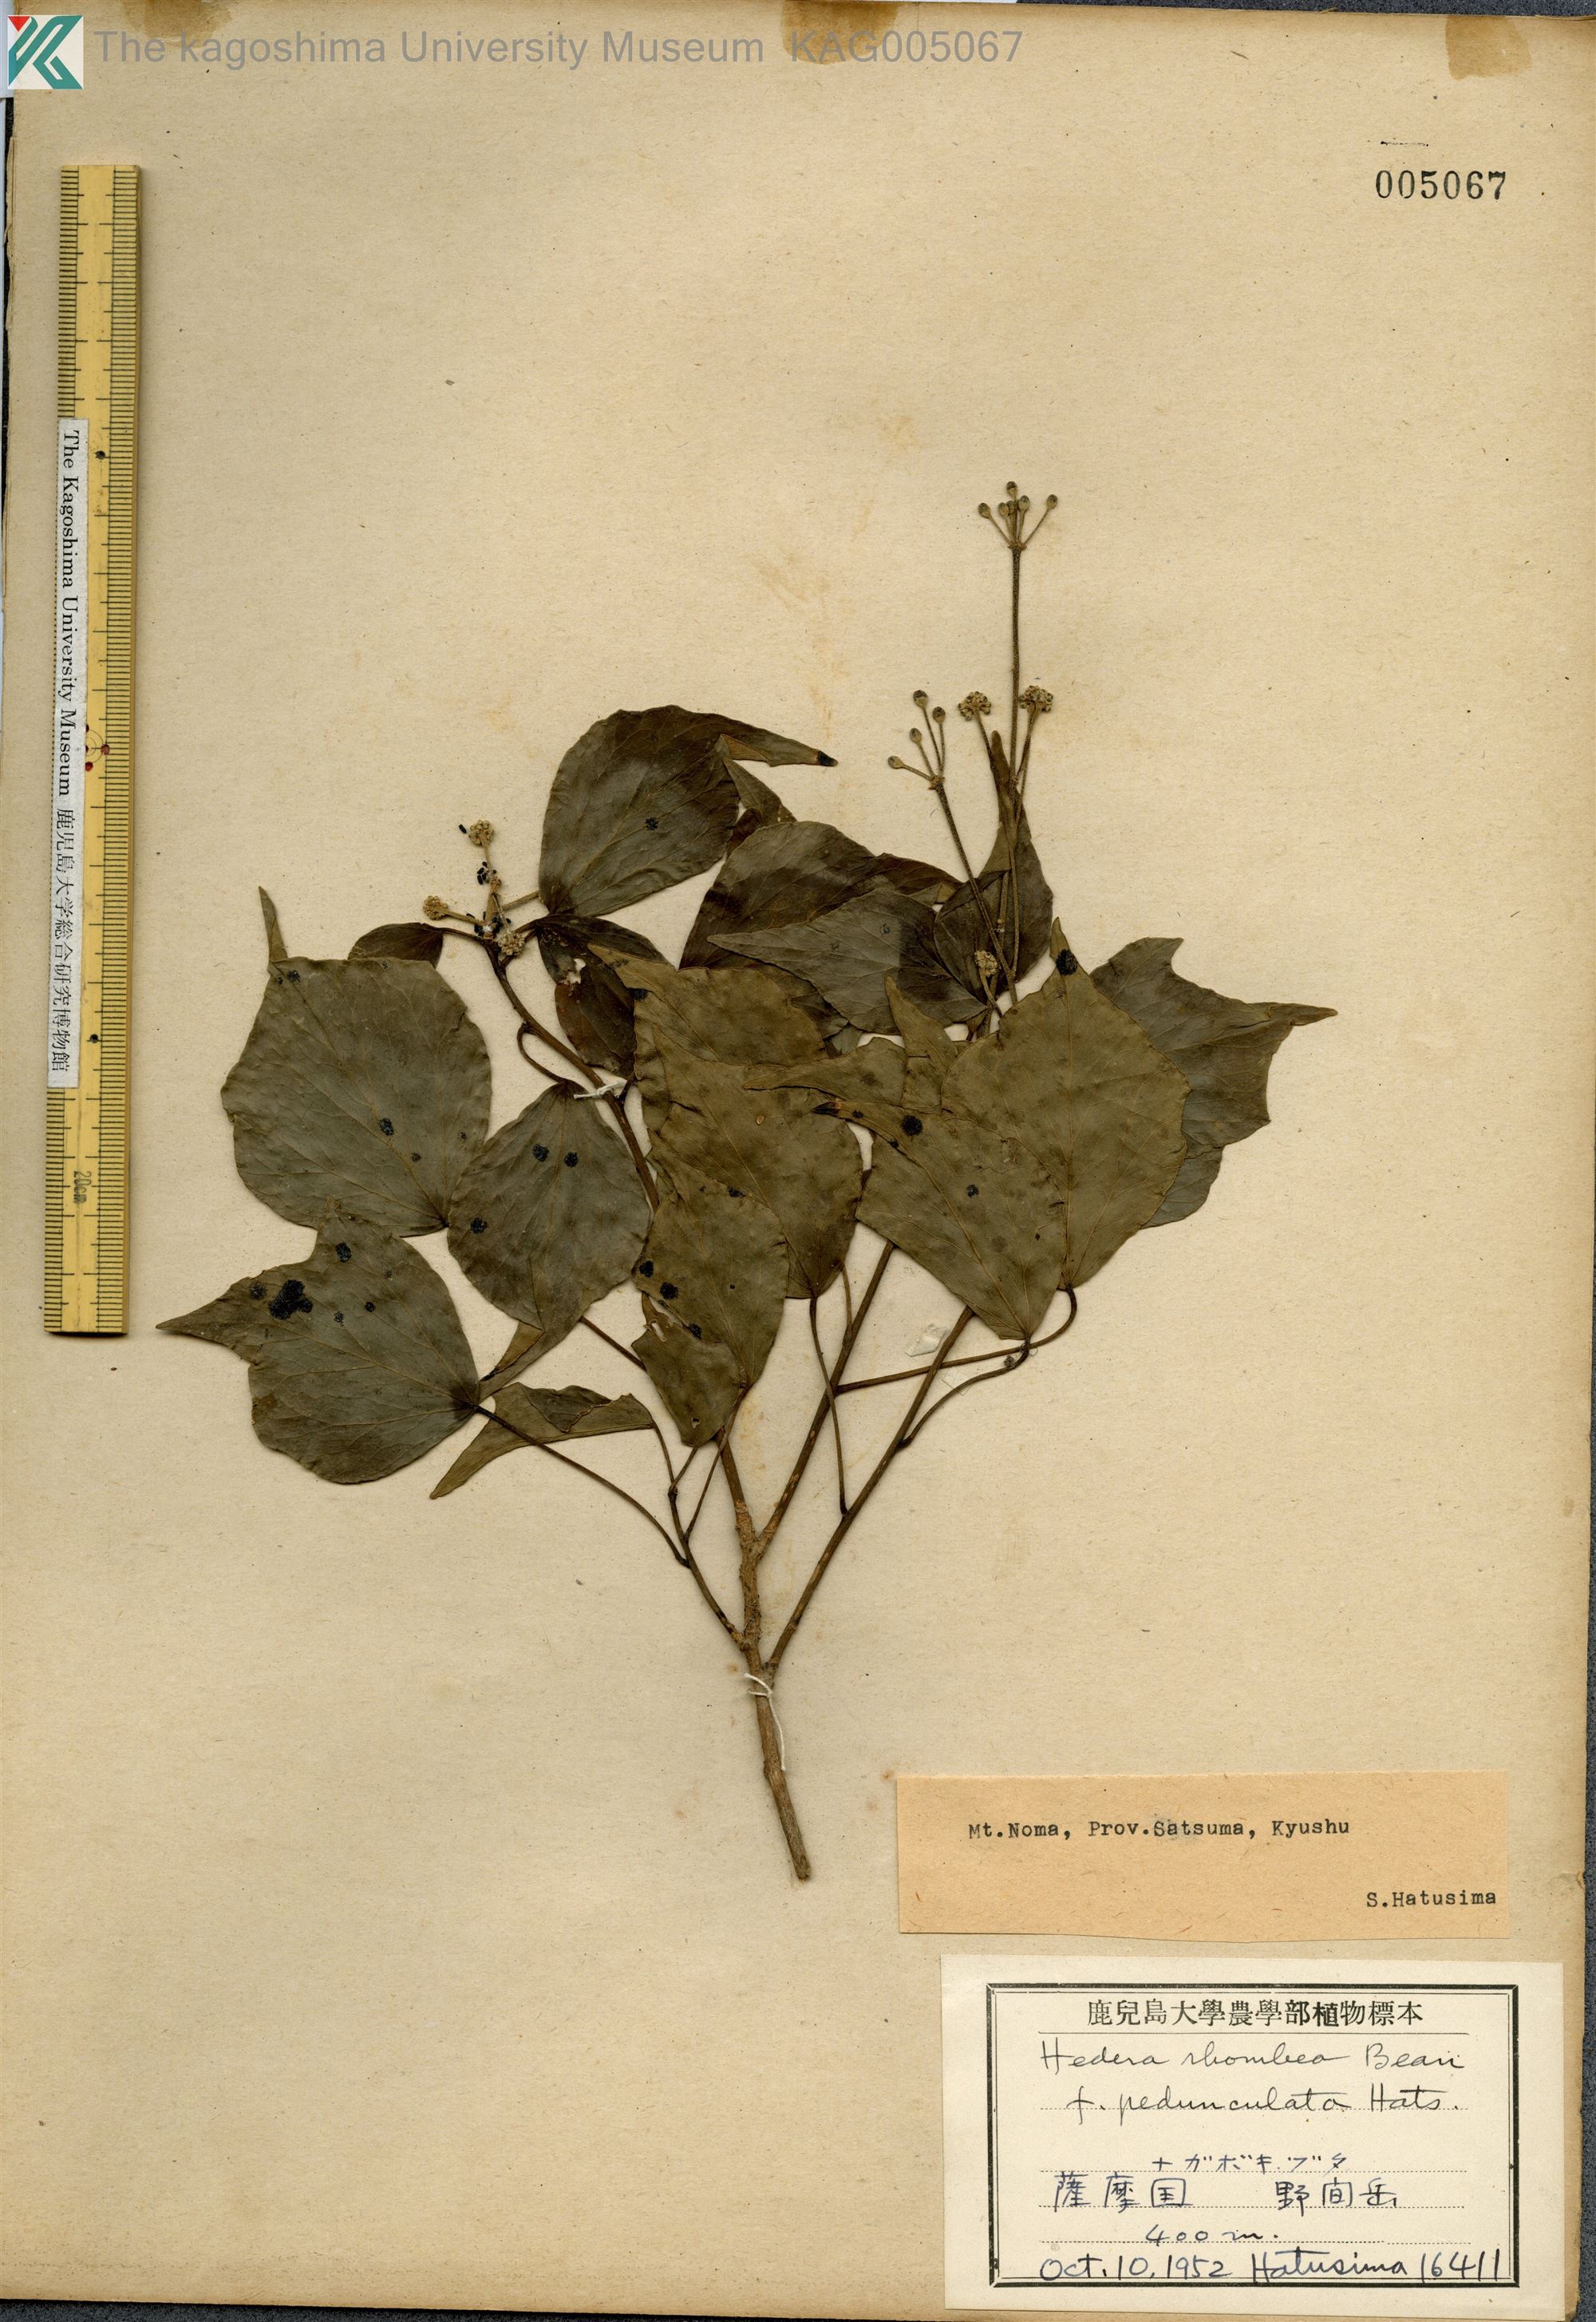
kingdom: Plantae
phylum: Tracheophyta
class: Magnoliopsida
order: Apiales
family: Araliaceae
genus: Hedera
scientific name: Hedera rhombea
